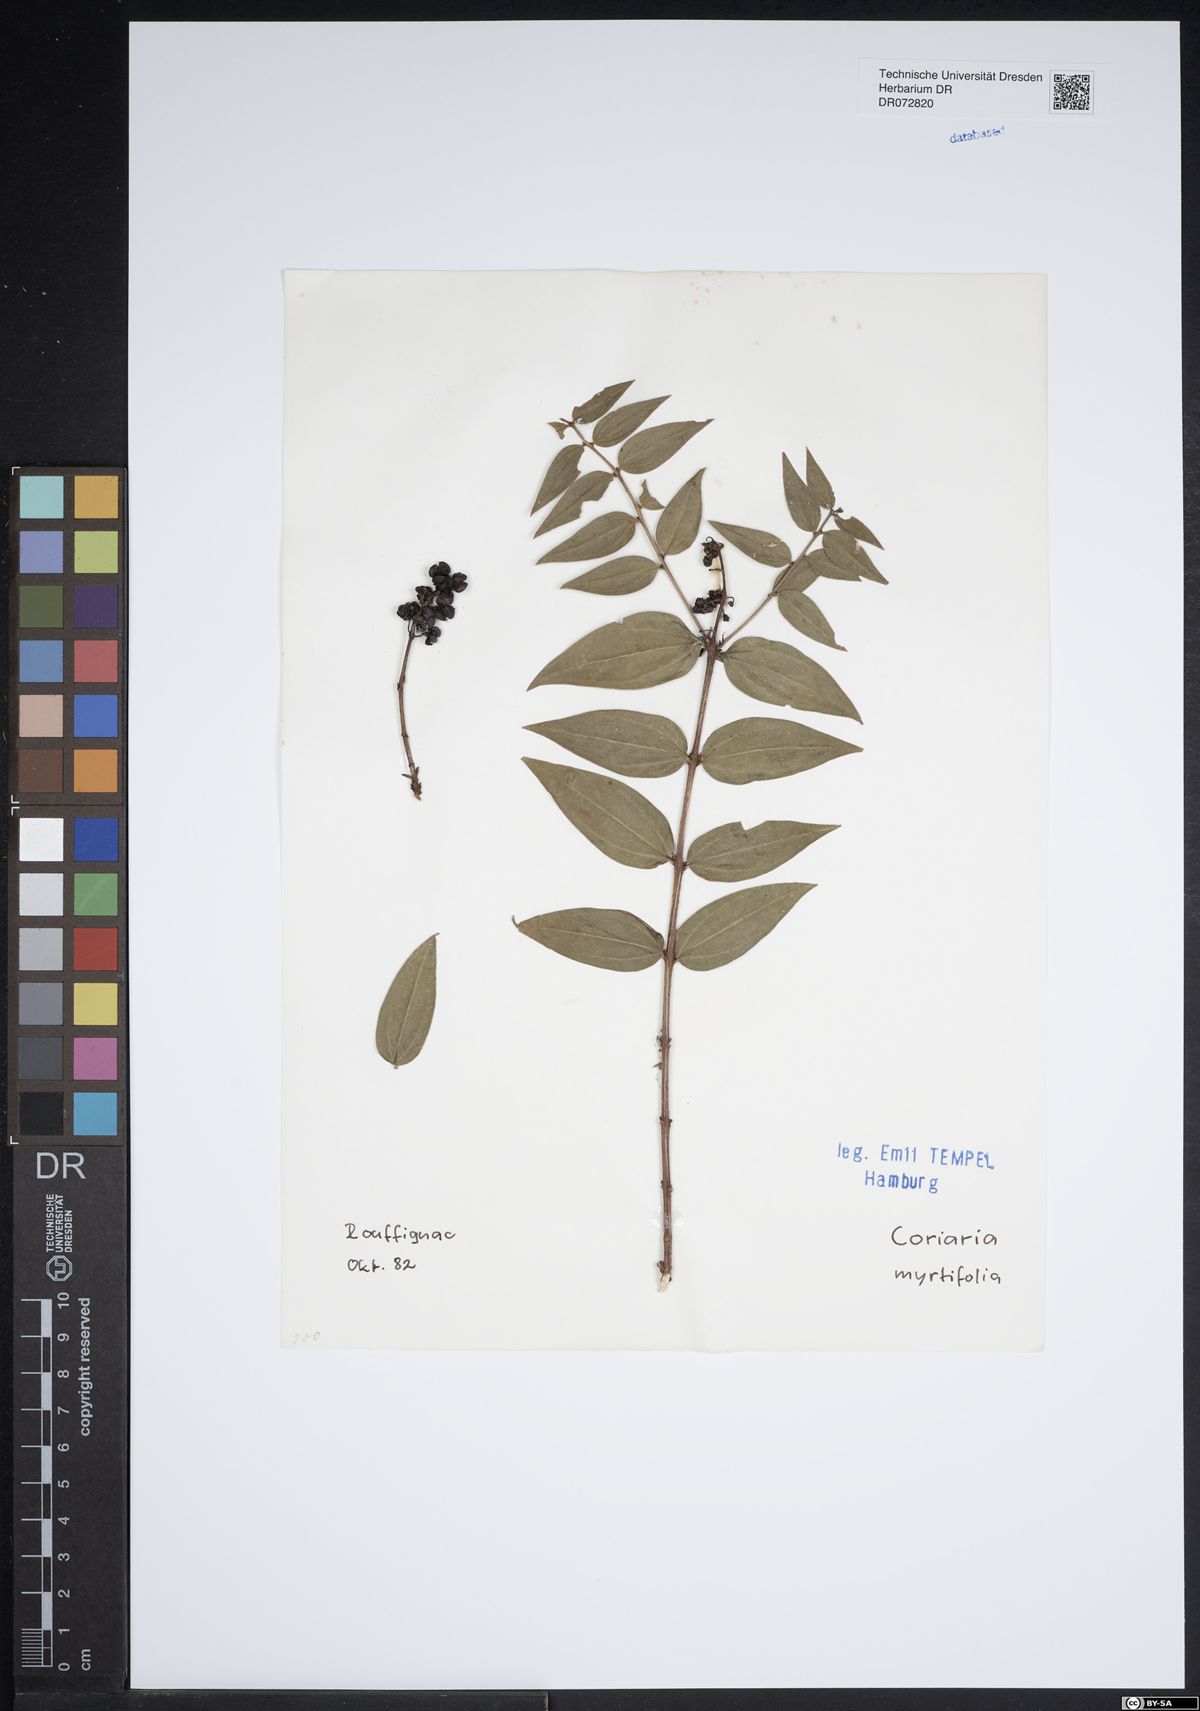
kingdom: Plantae
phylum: Tracheophyta
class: Magnoliopsida
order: Cucurbitales
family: Coriariaceae
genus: Coriaria
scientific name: Coriaria myrtifolia
